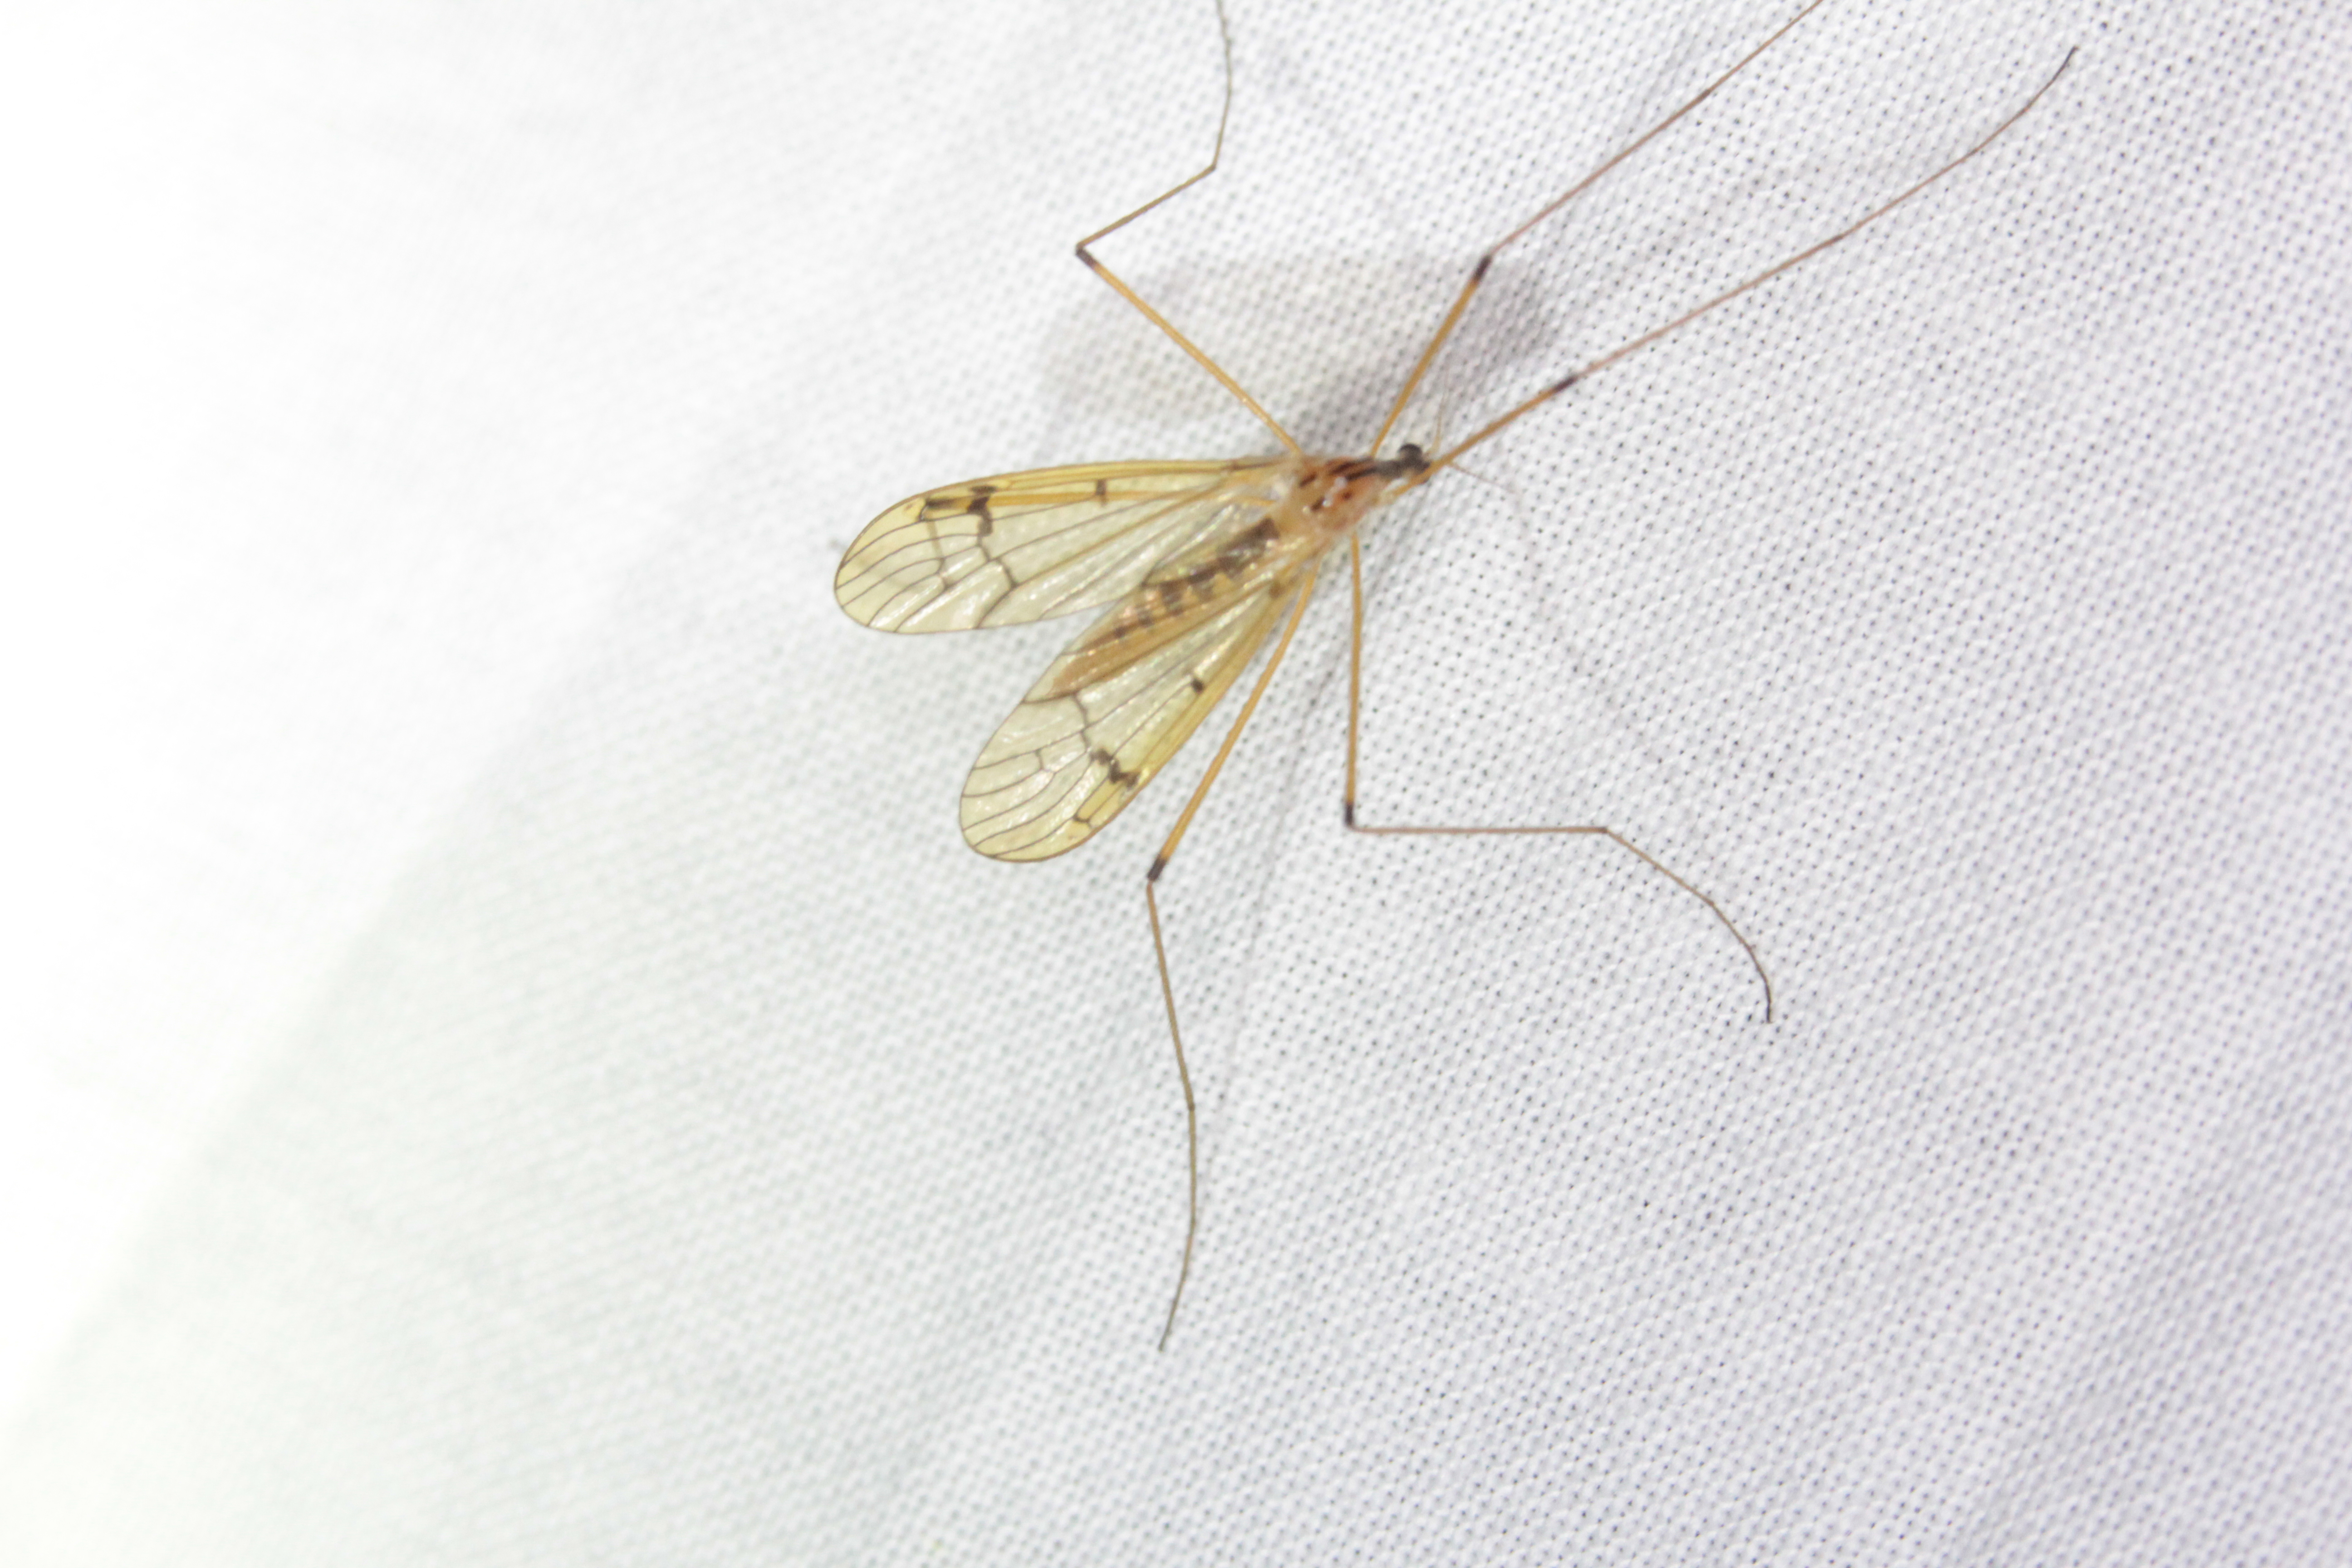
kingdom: Animalia
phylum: Arthropoda
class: Insecta
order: Diptera
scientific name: Diptera
